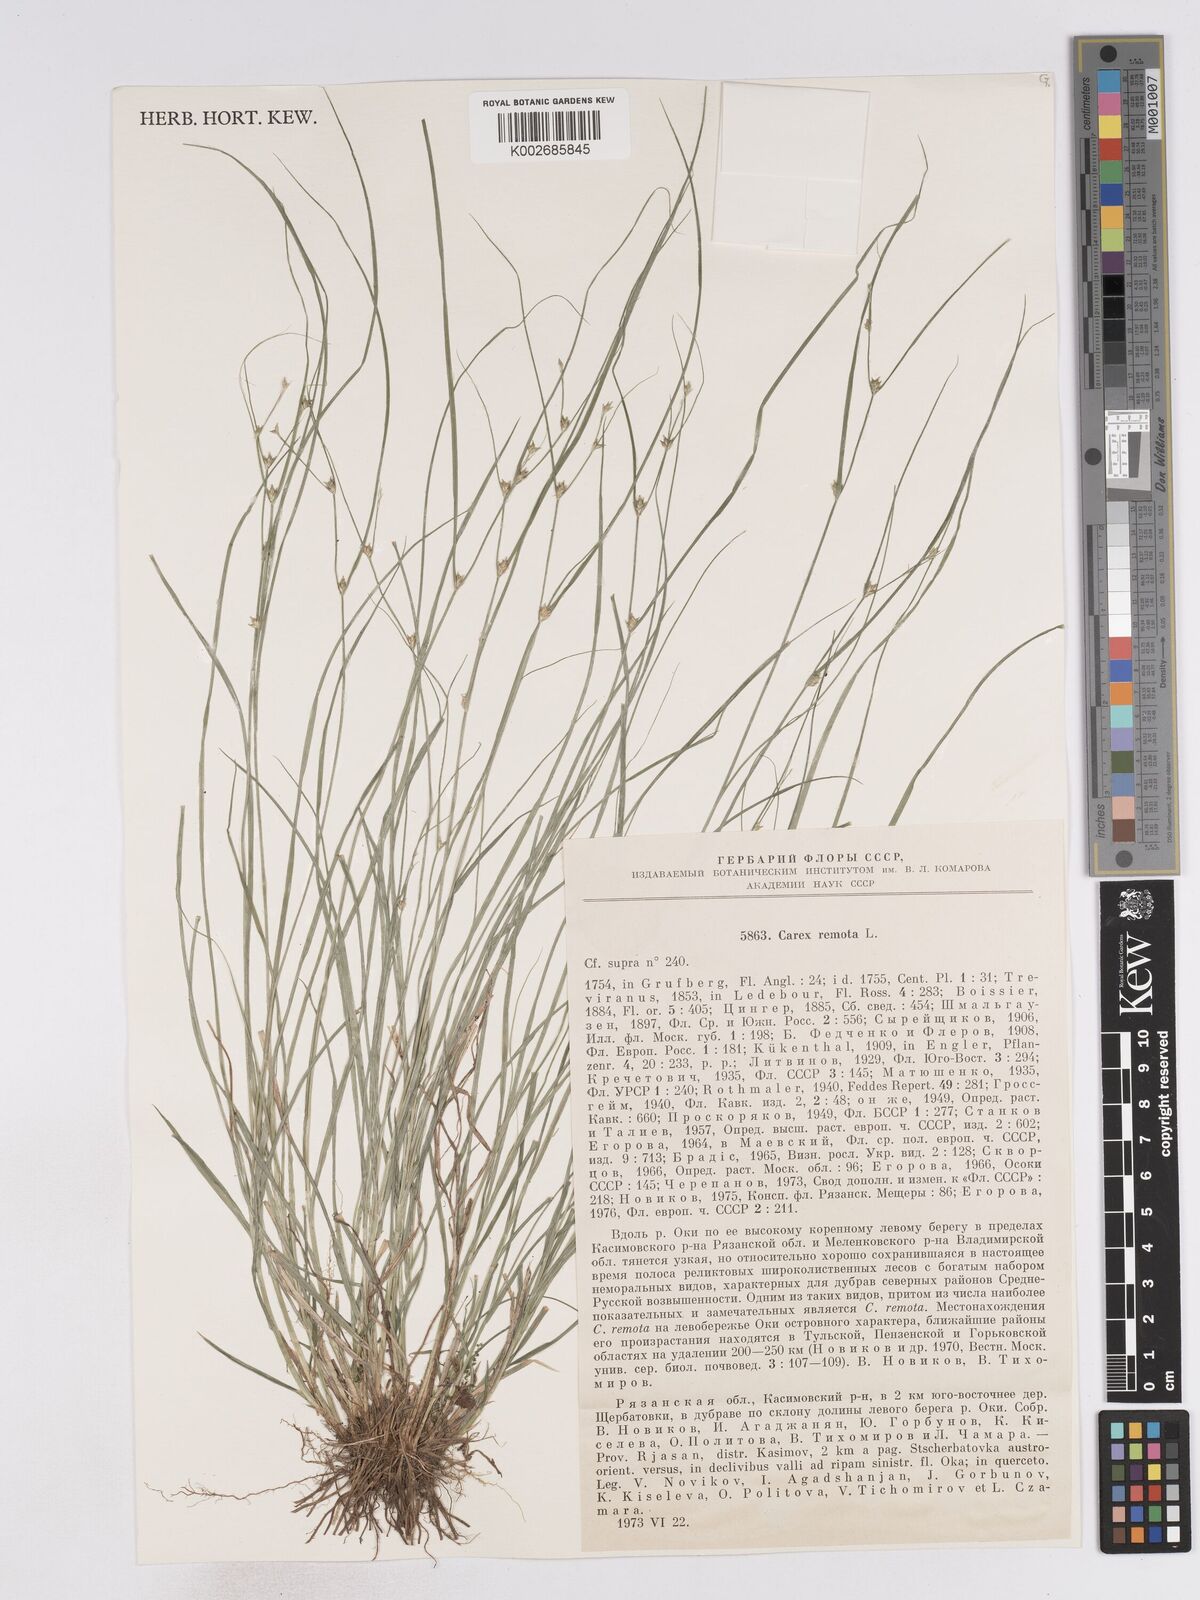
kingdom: Plantae
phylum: Tracheophyta
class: Liliopsida
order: Poales
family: Cyperaceae
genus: Carex
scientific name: Carex remota
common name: Remote sedge
